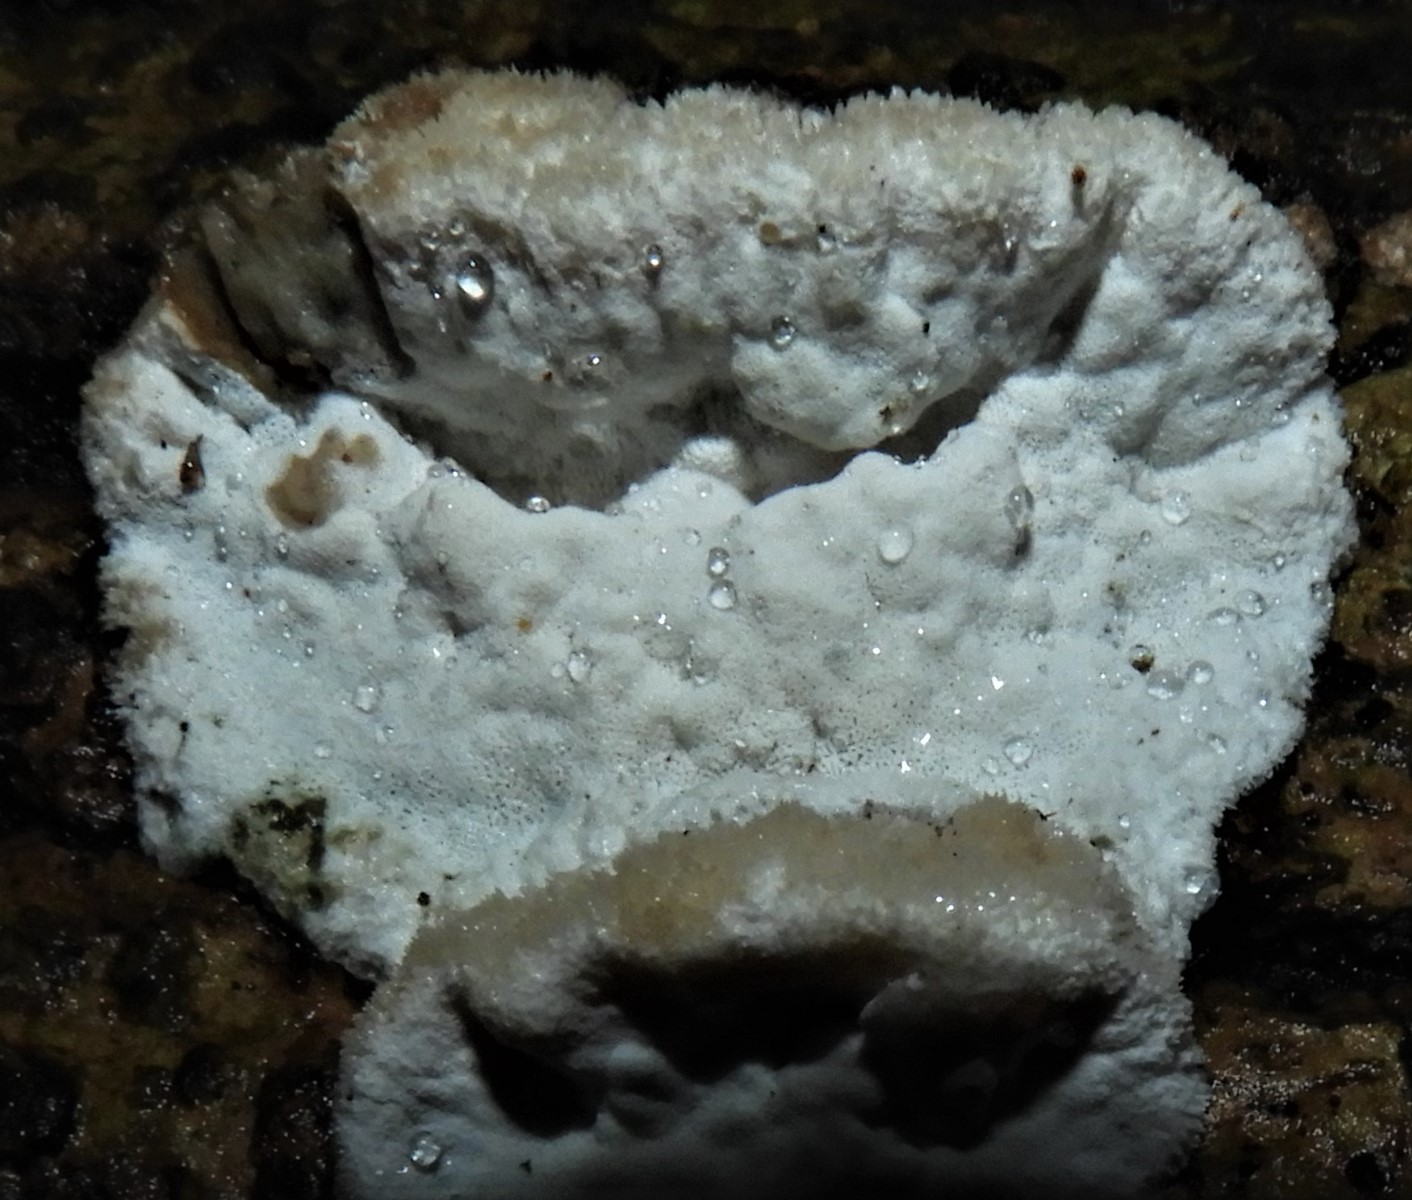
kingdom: Fungi
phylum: Basidiomycota
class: Agaricomycetes
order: Polyporales
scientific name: Polyporales
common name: poresvampordenen
